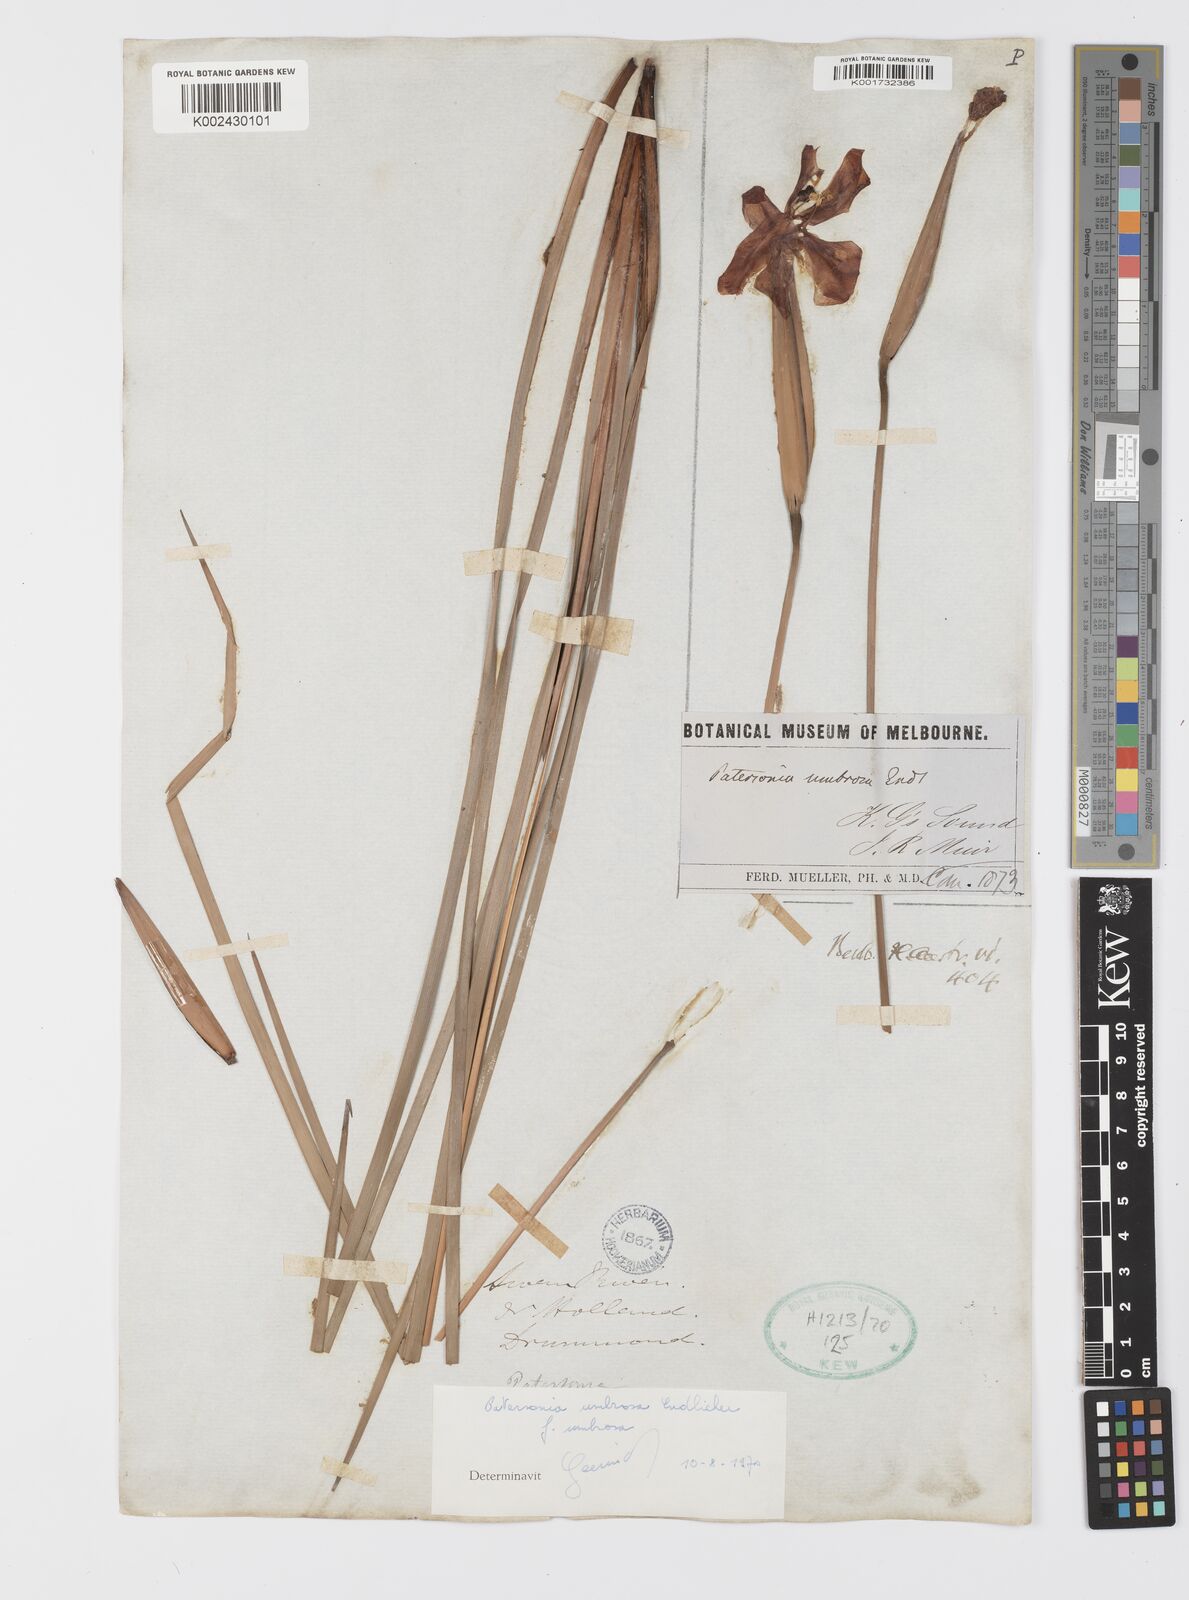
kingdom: Plantae
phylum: Tracheophyta
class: Liliopsida
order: Asparagales
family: Iridaceae
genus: Patersonia
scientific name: Patersonia umbrosa
